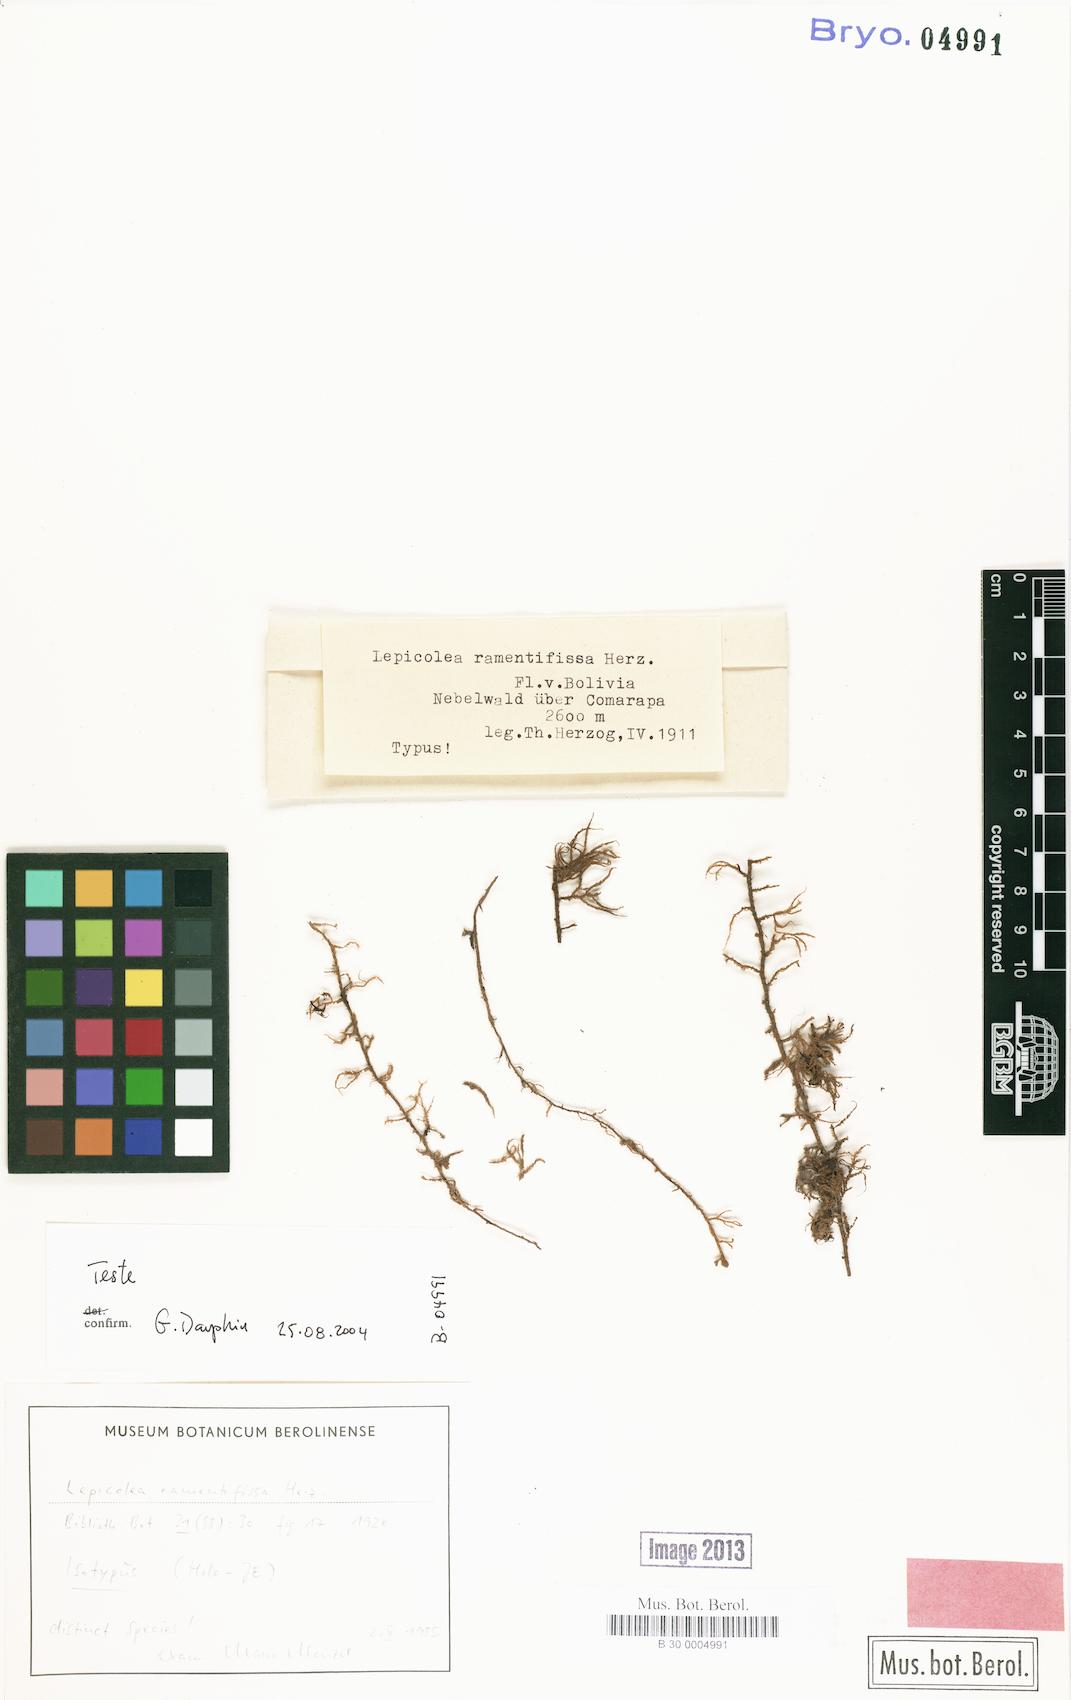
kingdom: Plantae
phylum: Marchantiophyta
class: Jungermanniopsida
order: Jungermanniales
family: Lepicoleaceae
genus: Lepicolea
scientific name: Lepicolea ramenifissa
